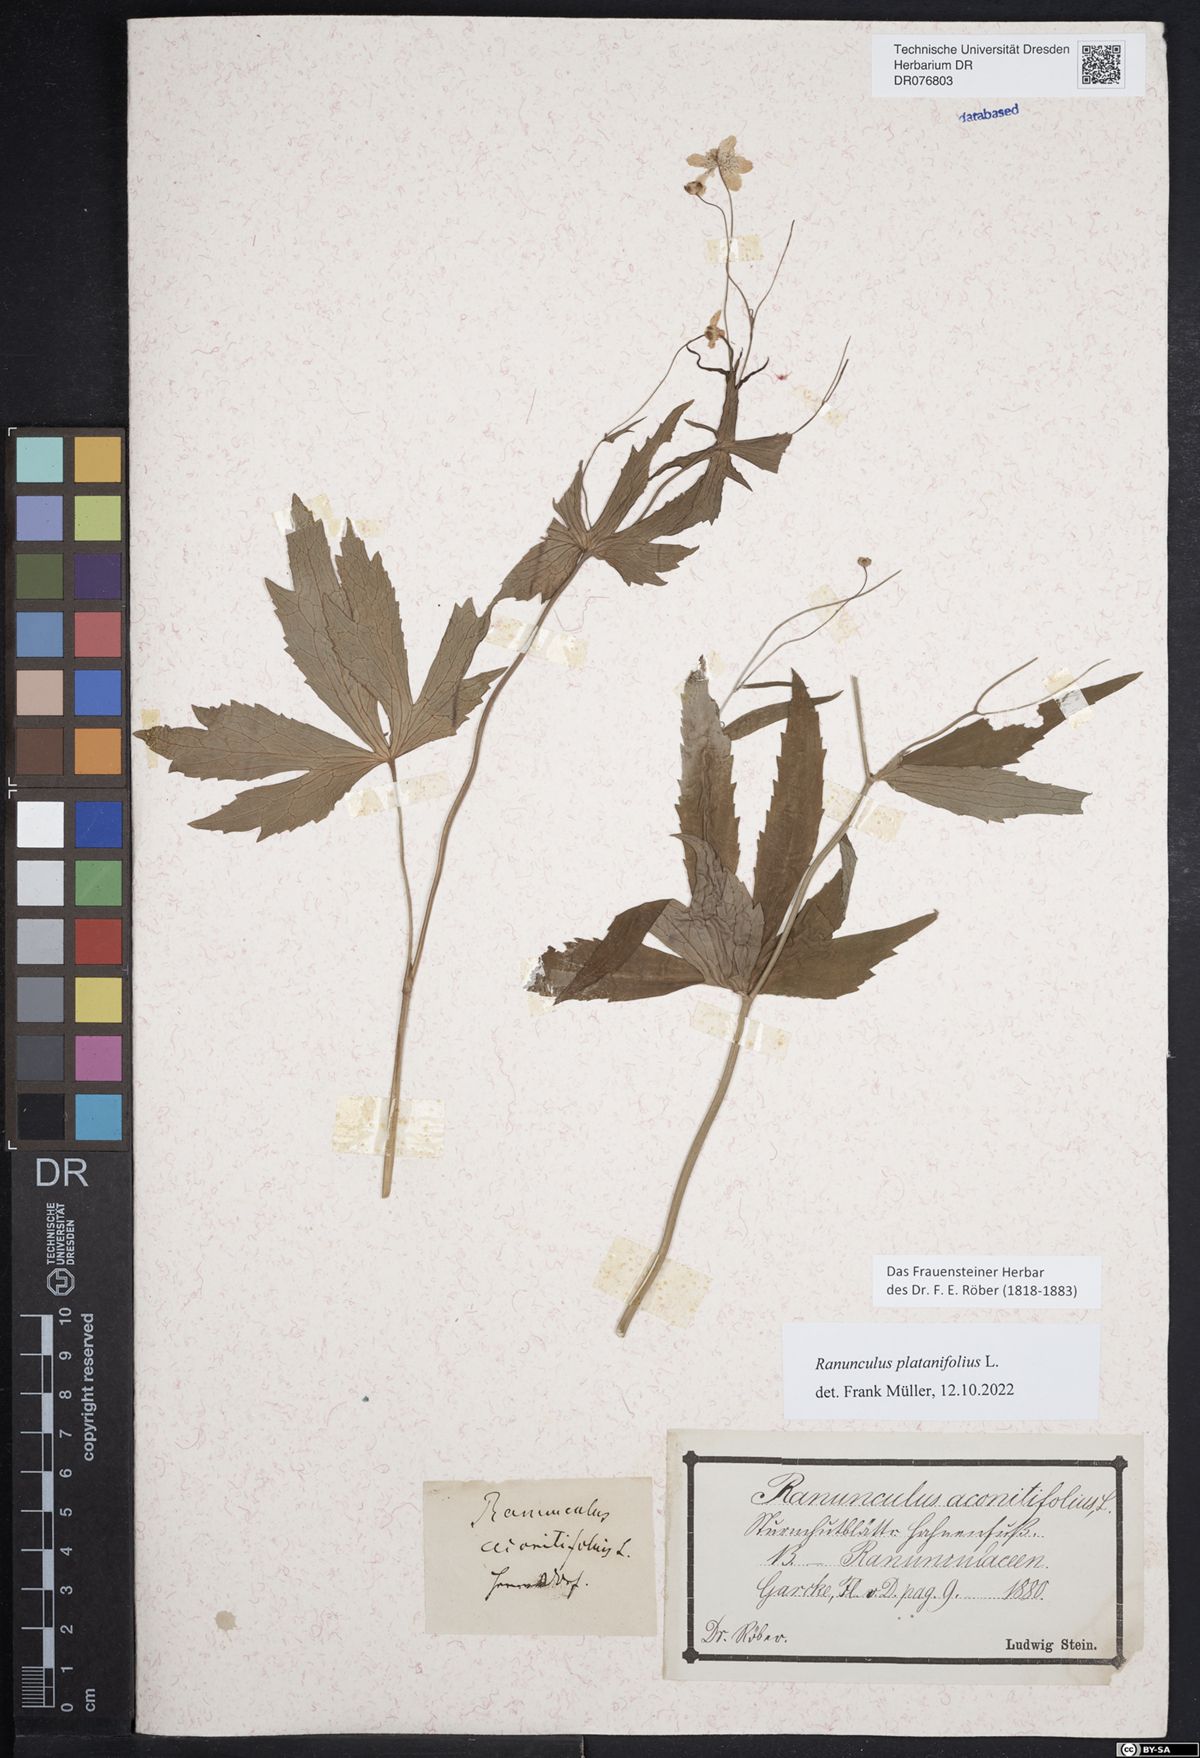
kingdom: Plantae
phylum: Tracheophyta
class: Magnoliopsida
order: Ranunculales
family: Ranunculaceae
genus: Ranunculus
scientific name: Ranunculus platanifolius
